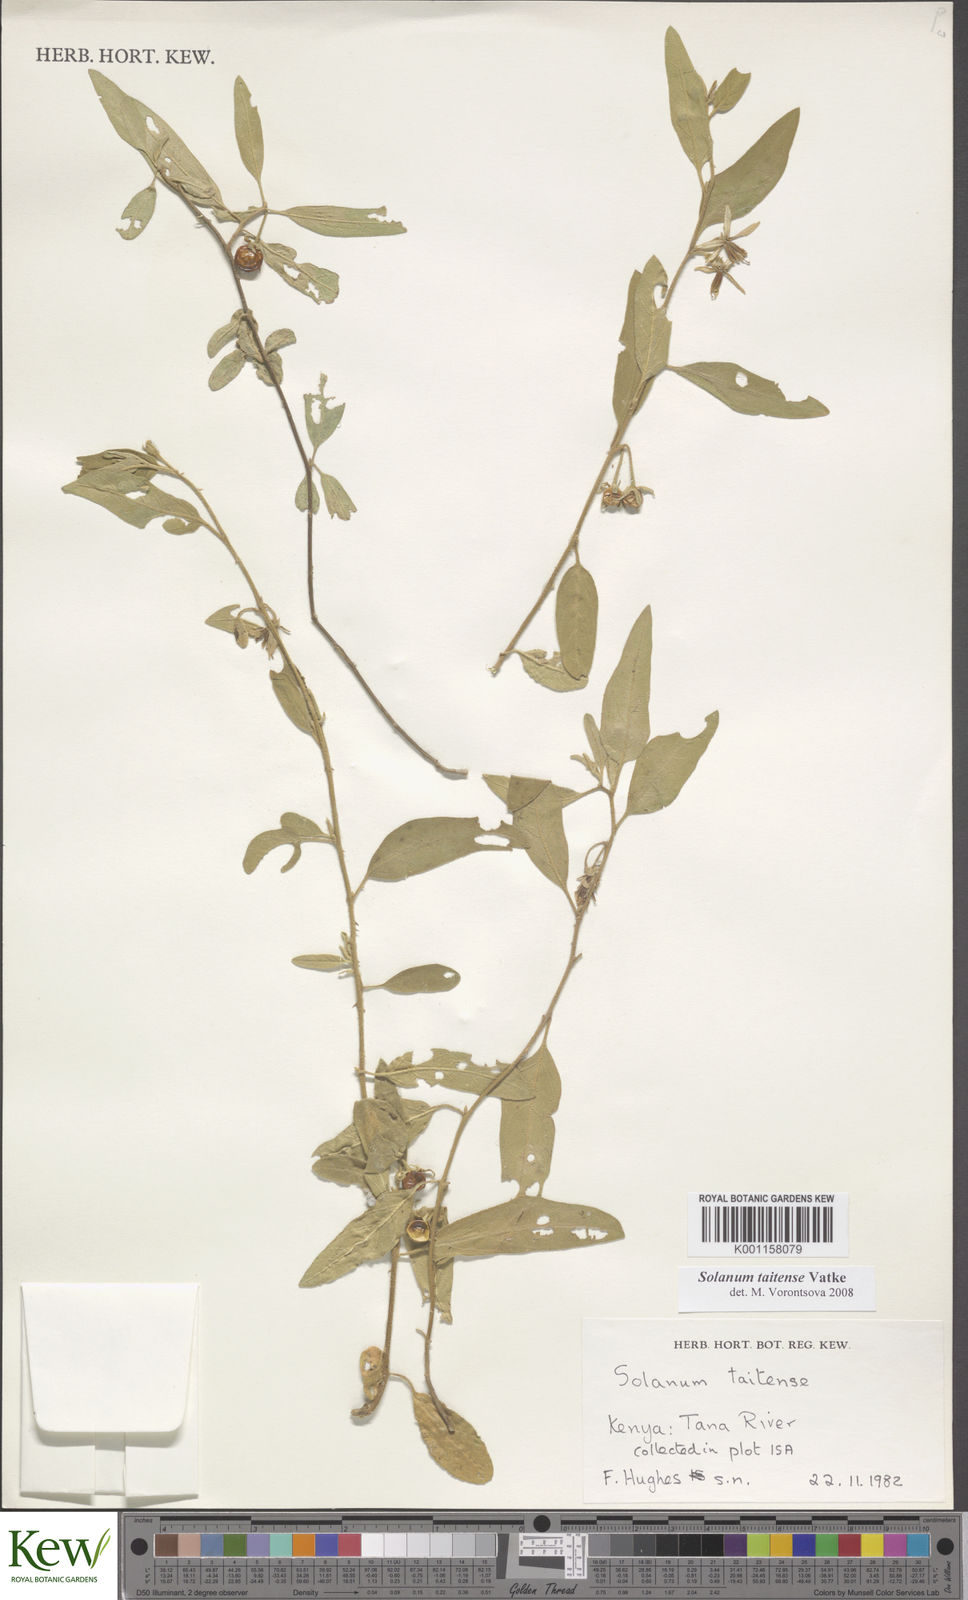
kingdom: Plantae
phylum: Tracheophyta
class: Magnoliopsida
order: Solanales
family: Solanaceae
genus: Solanum
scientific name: Solanum taitense
